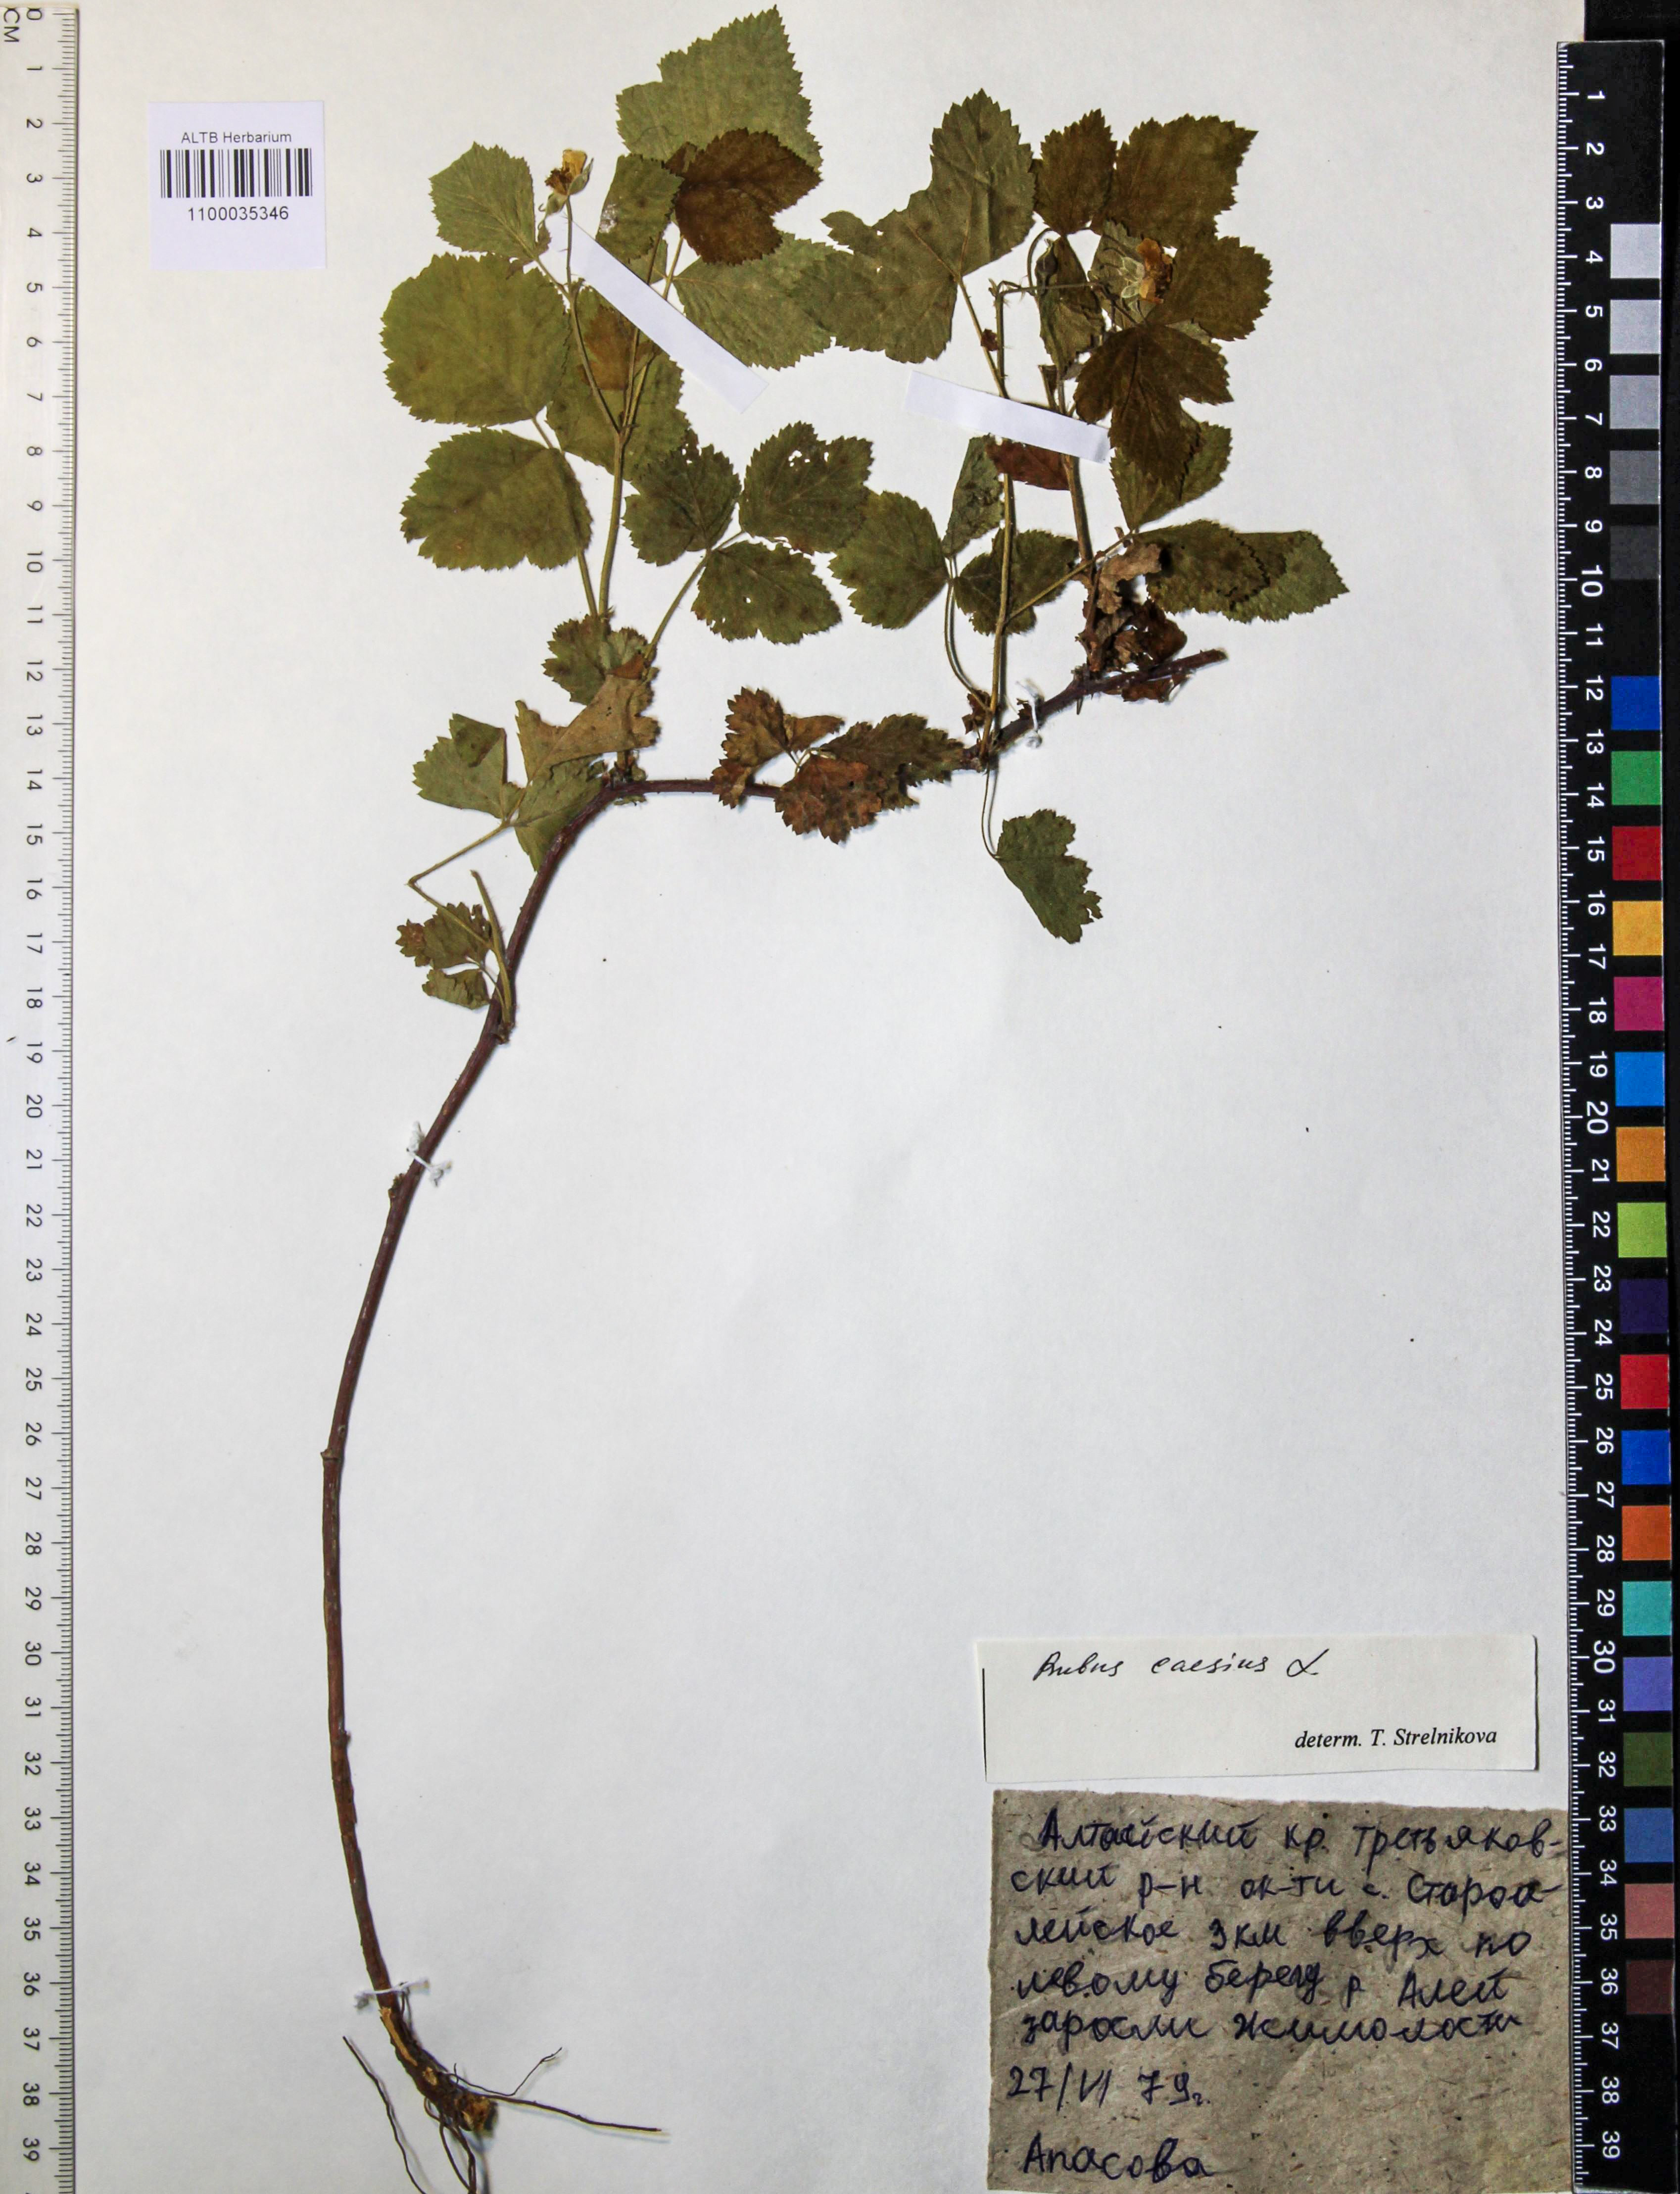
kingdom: Plantae
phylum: Tracheophyta
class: Magnoliopsida
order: Rosales
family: Rosaceae
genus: Rubus
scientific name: Rubus caesius
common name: Dewberry
